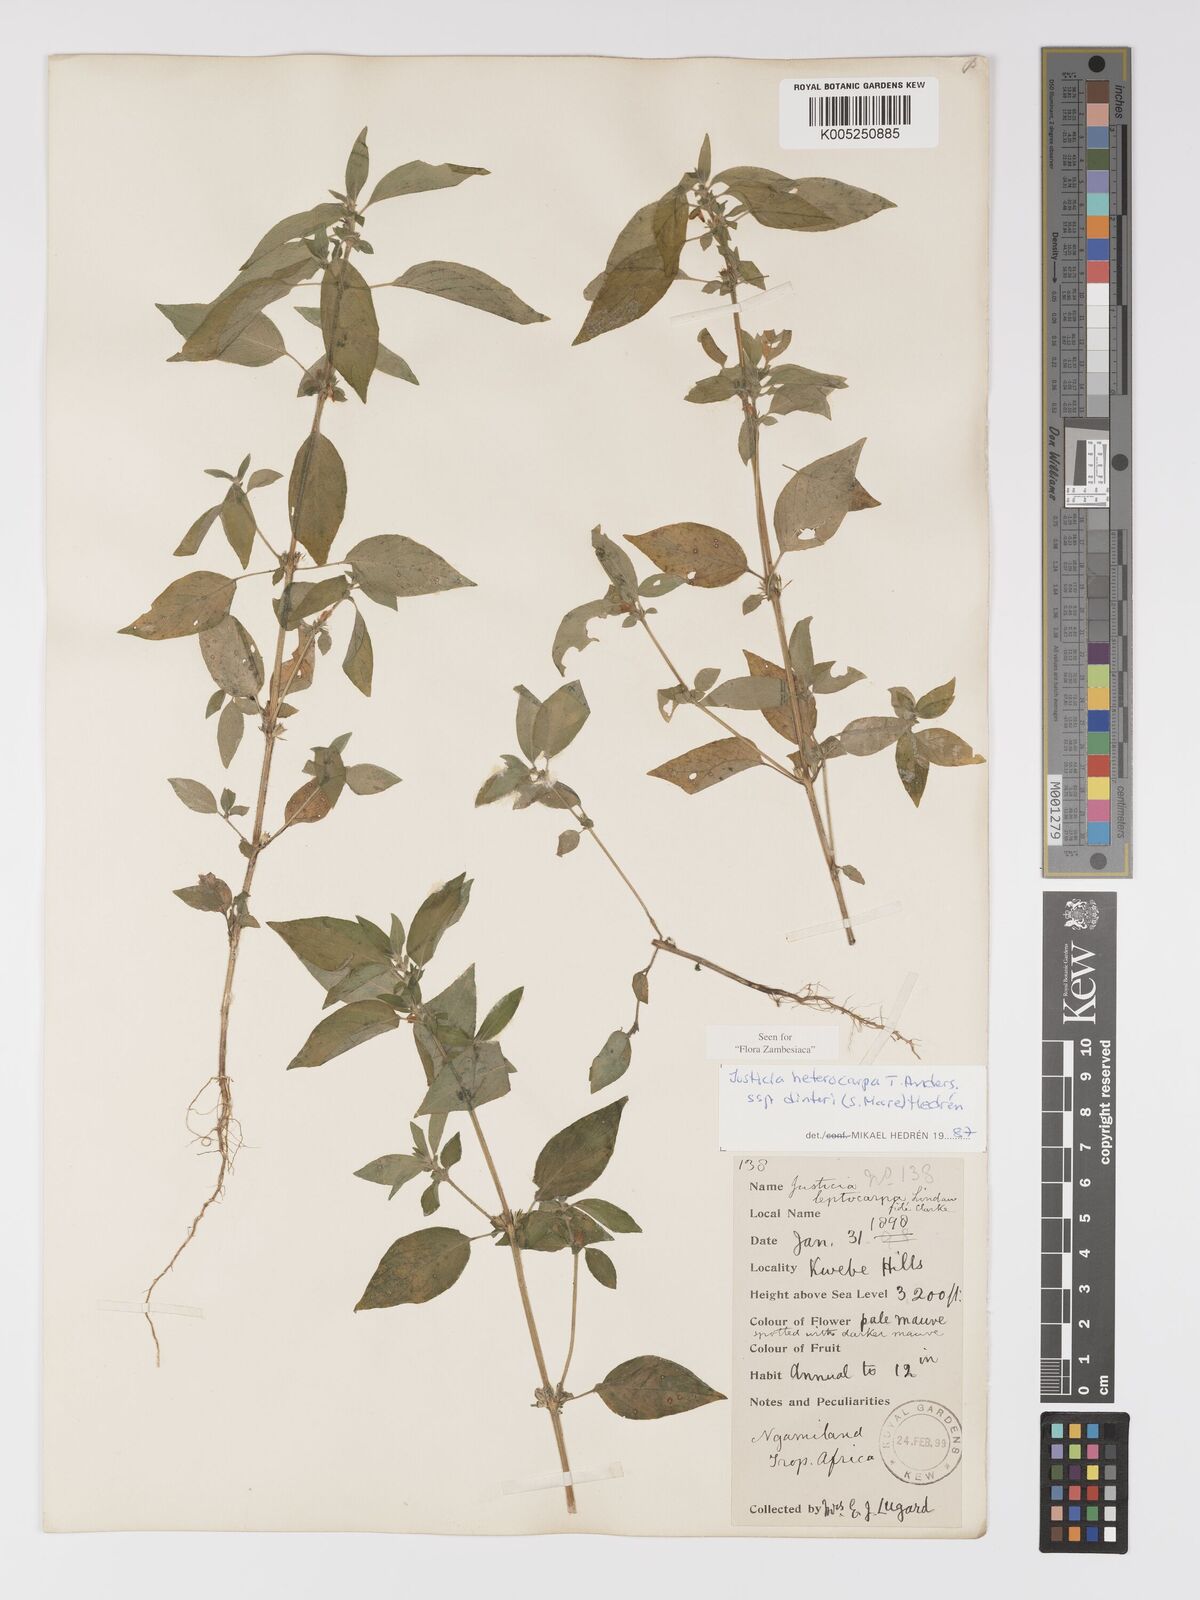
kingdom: Plantae
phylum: Tracheophyta
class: Magnoliopsida
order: Lamiales
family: Acanthaceae
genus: Justicia
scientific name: Justicia heterocarpa
